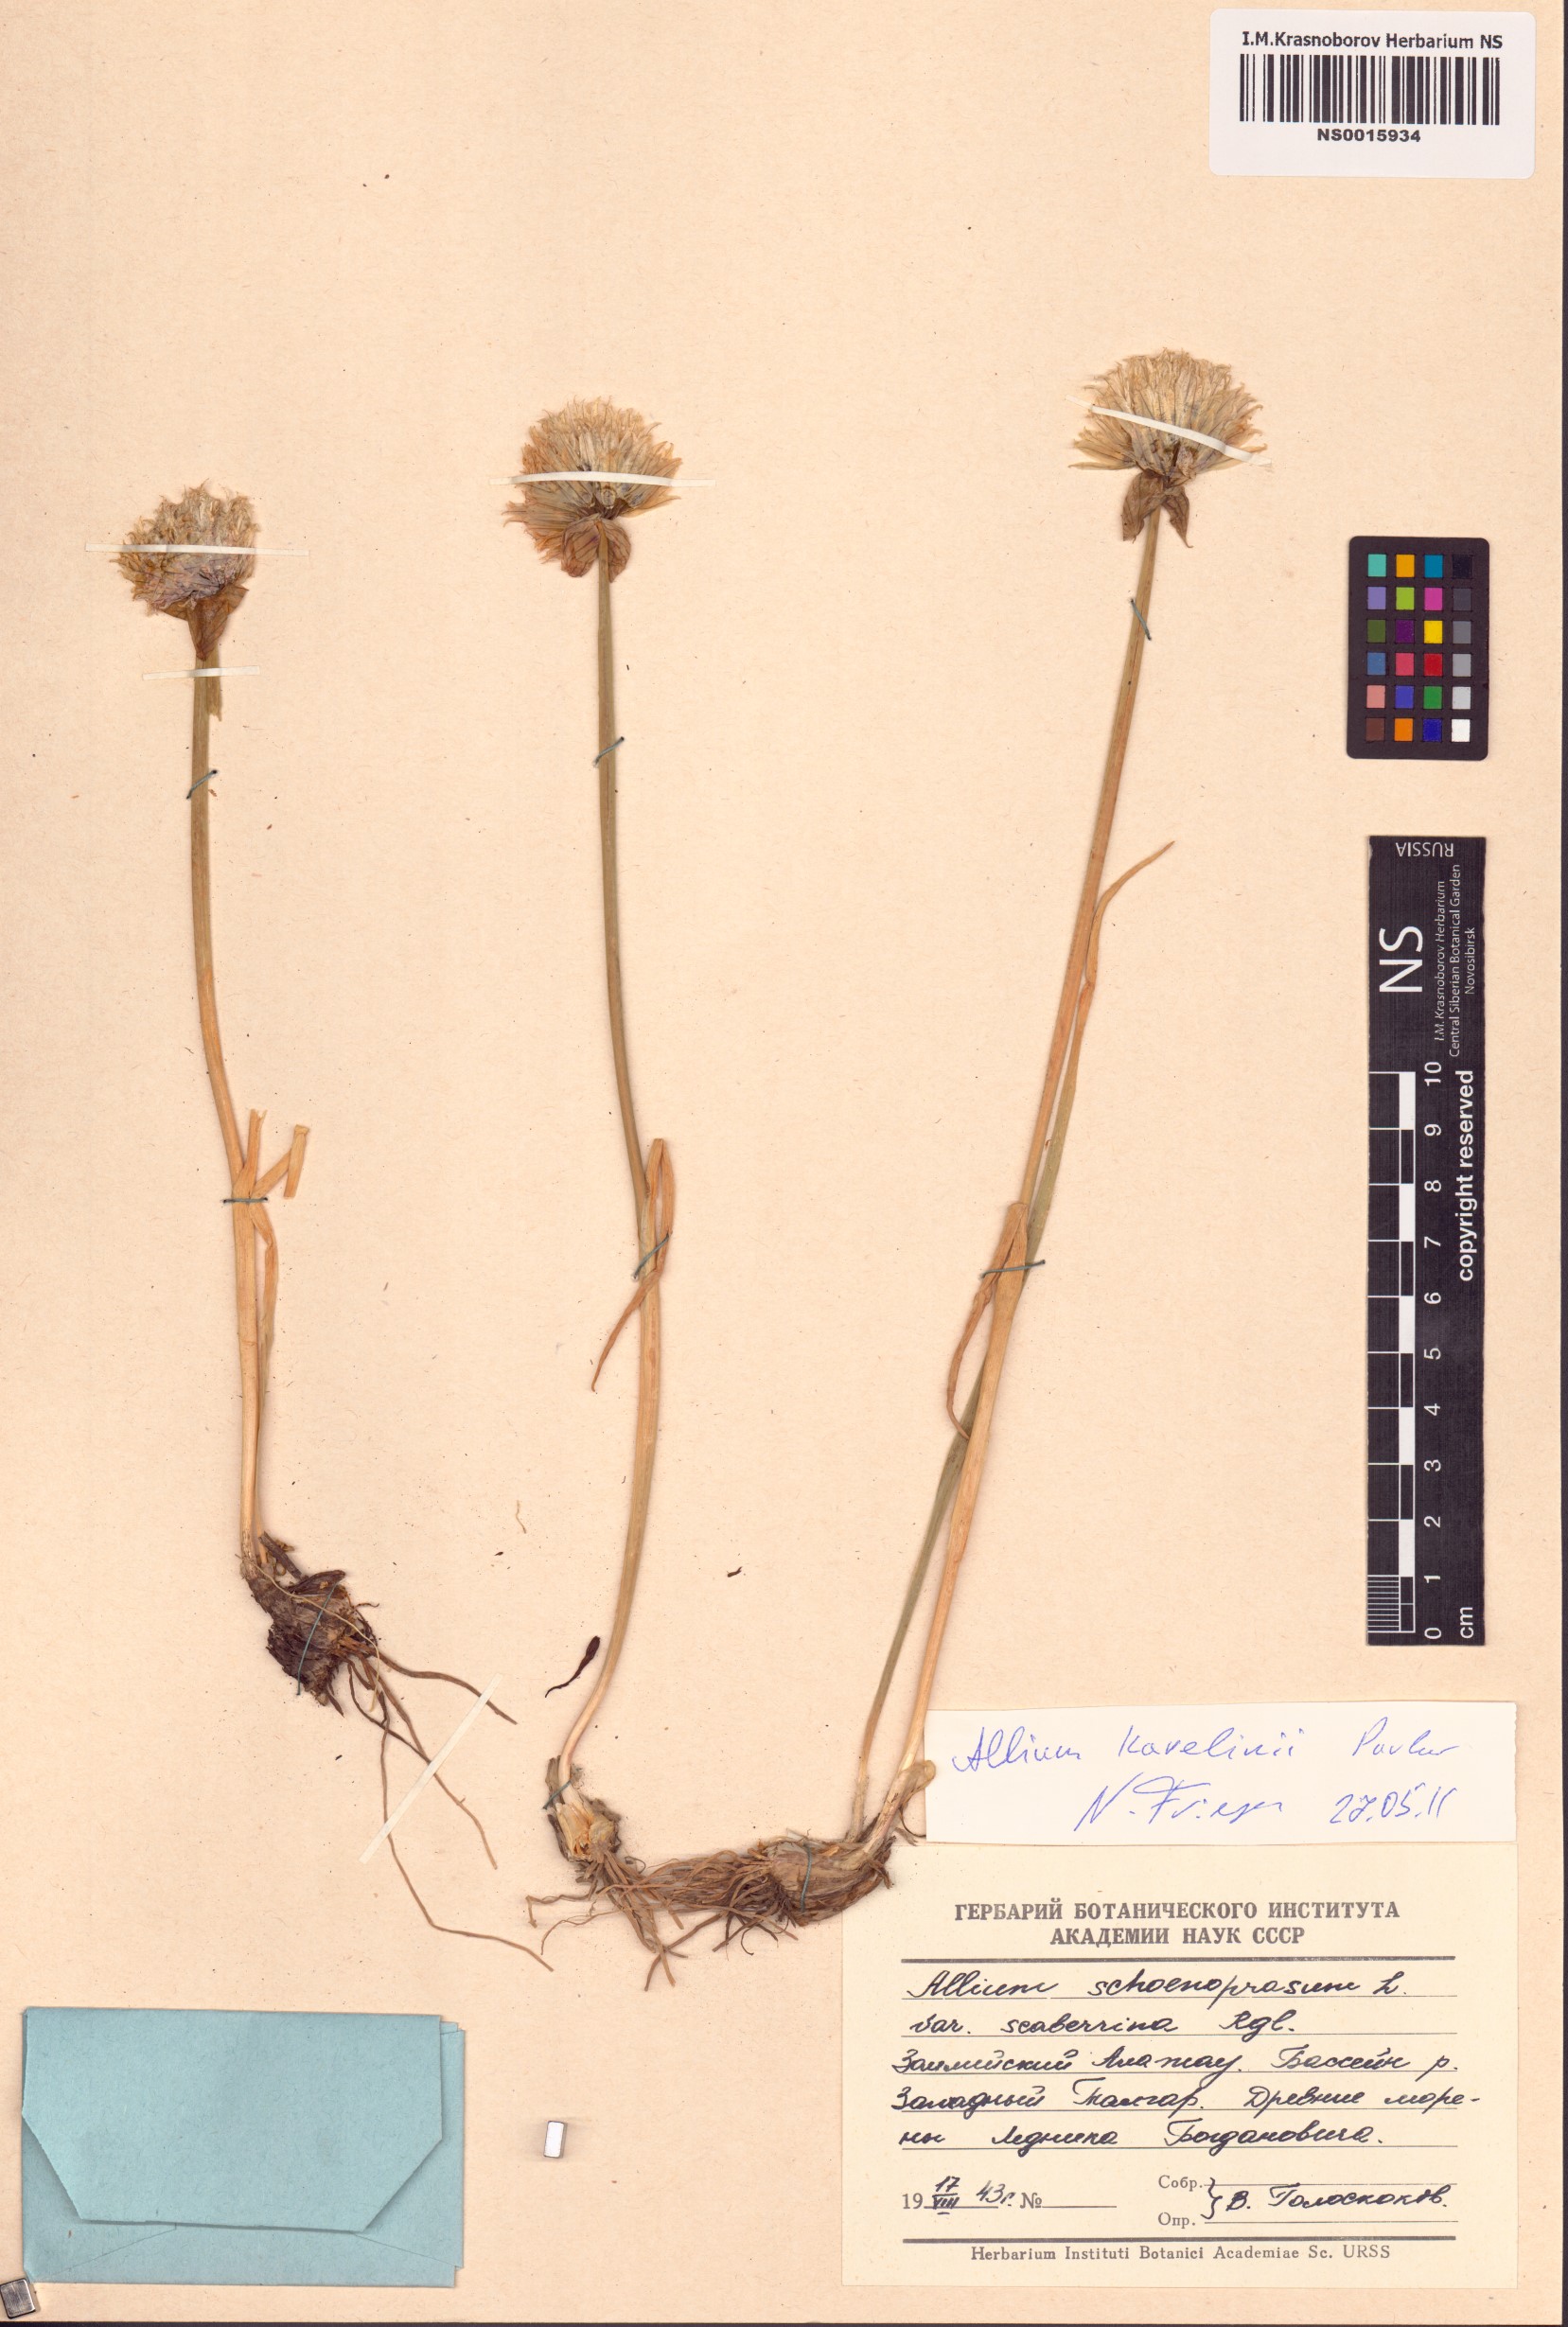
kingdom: Plantae
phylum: Tracheophyta
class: Liliopsida
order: Asparagales
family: Amaryllidaceae
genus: Allium
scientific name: Allium karelinii
